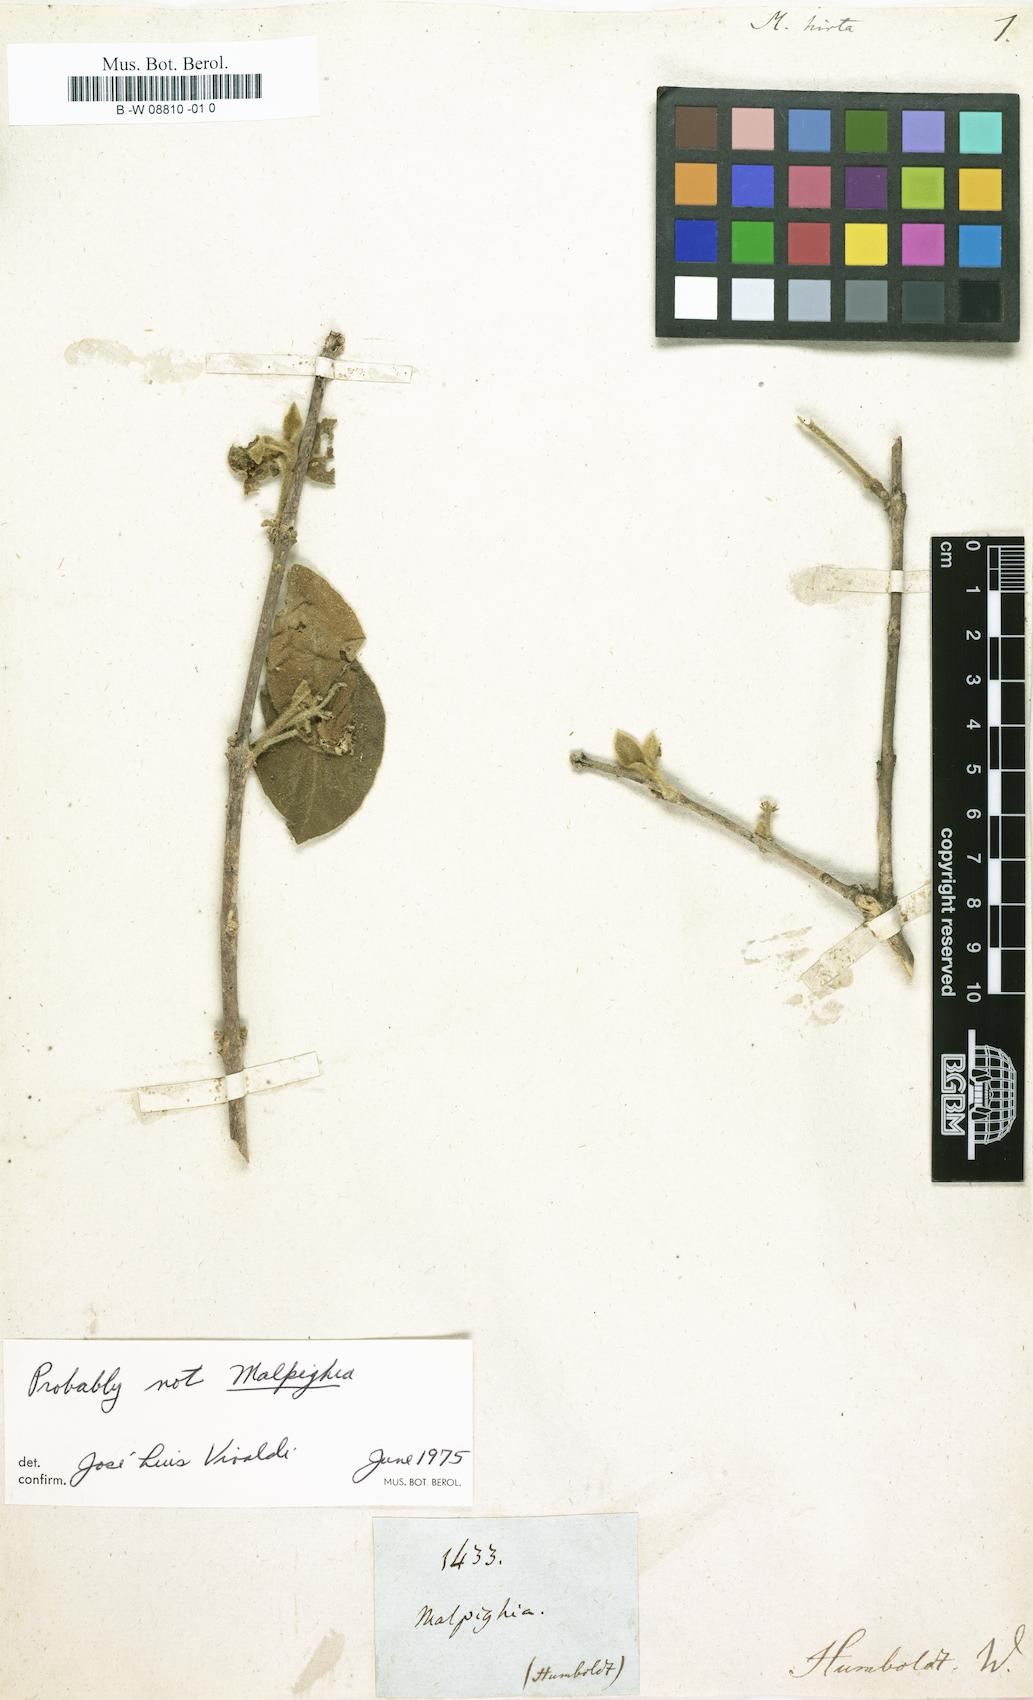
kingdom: Plantae
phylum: Tracheophyta
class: Magnoliopsida
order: Malpighiales
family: Malpighiaceae
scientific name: Malpighiaceae
